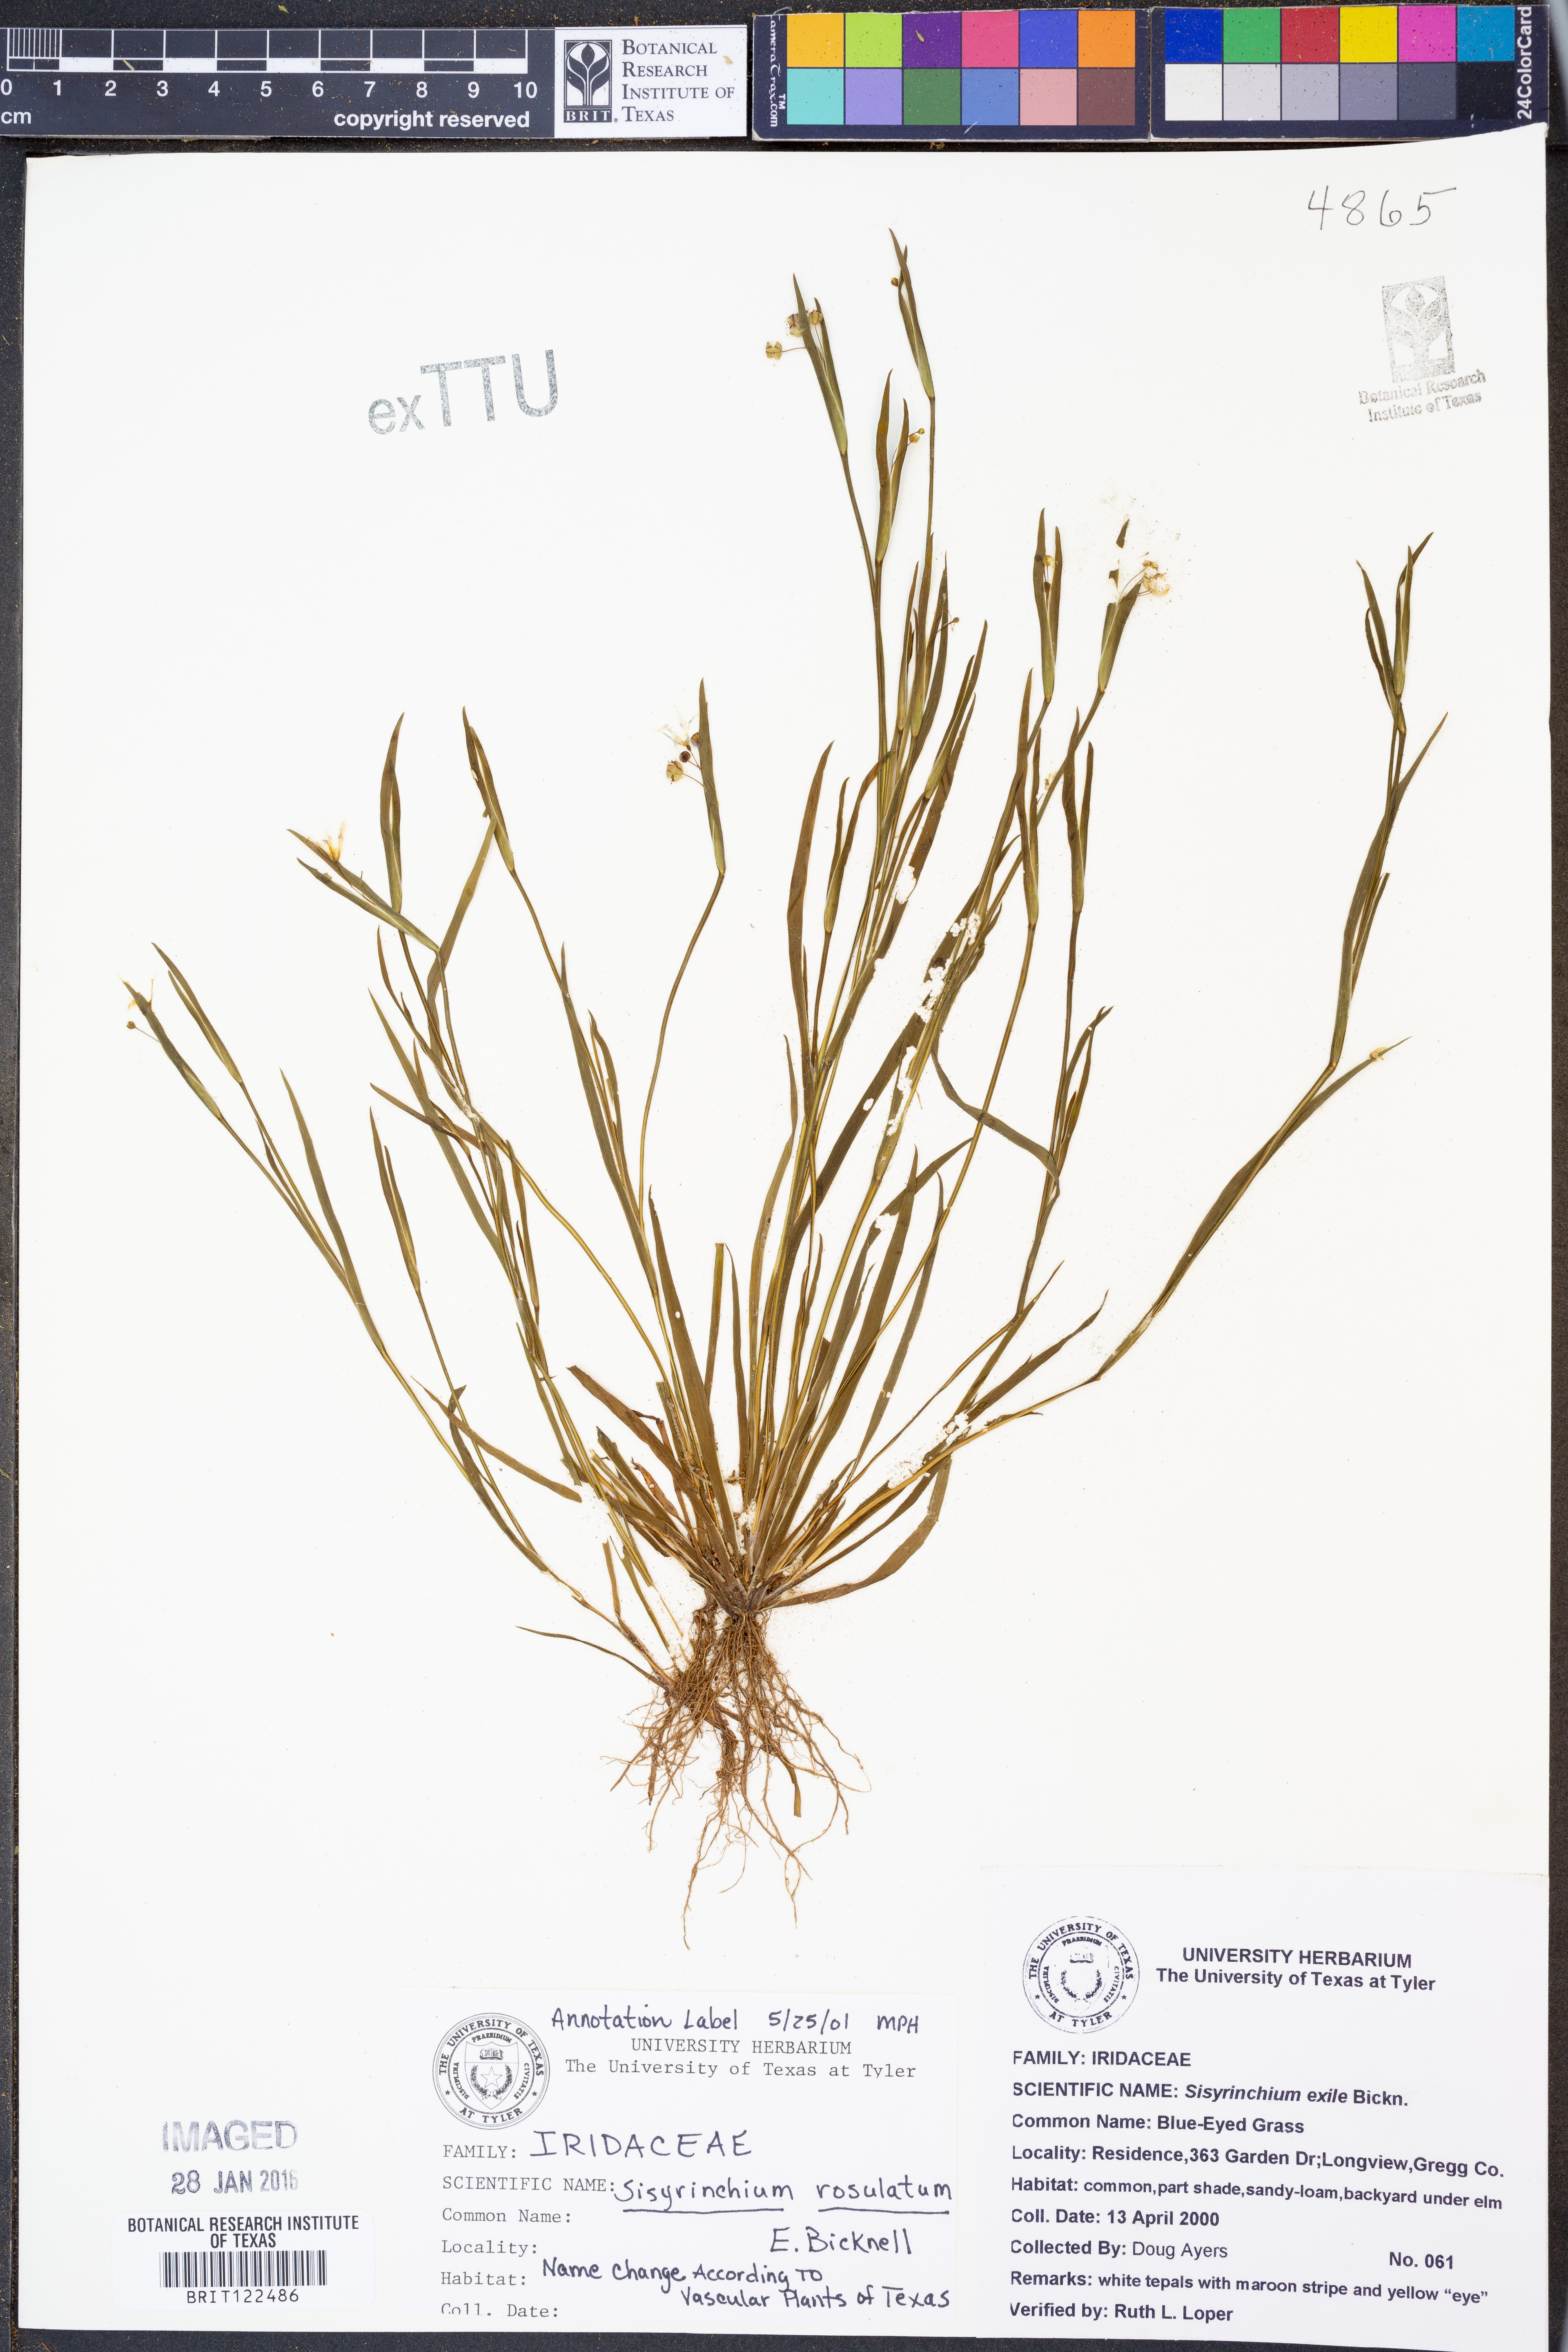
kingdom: Plantae
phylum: Tracheophyta
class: Liliopsida
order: Asparagales
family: Iridaceae
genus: Sisyrinchium
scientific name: Sisyrinchium rosulatum
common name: Annual blue-eyed grass
